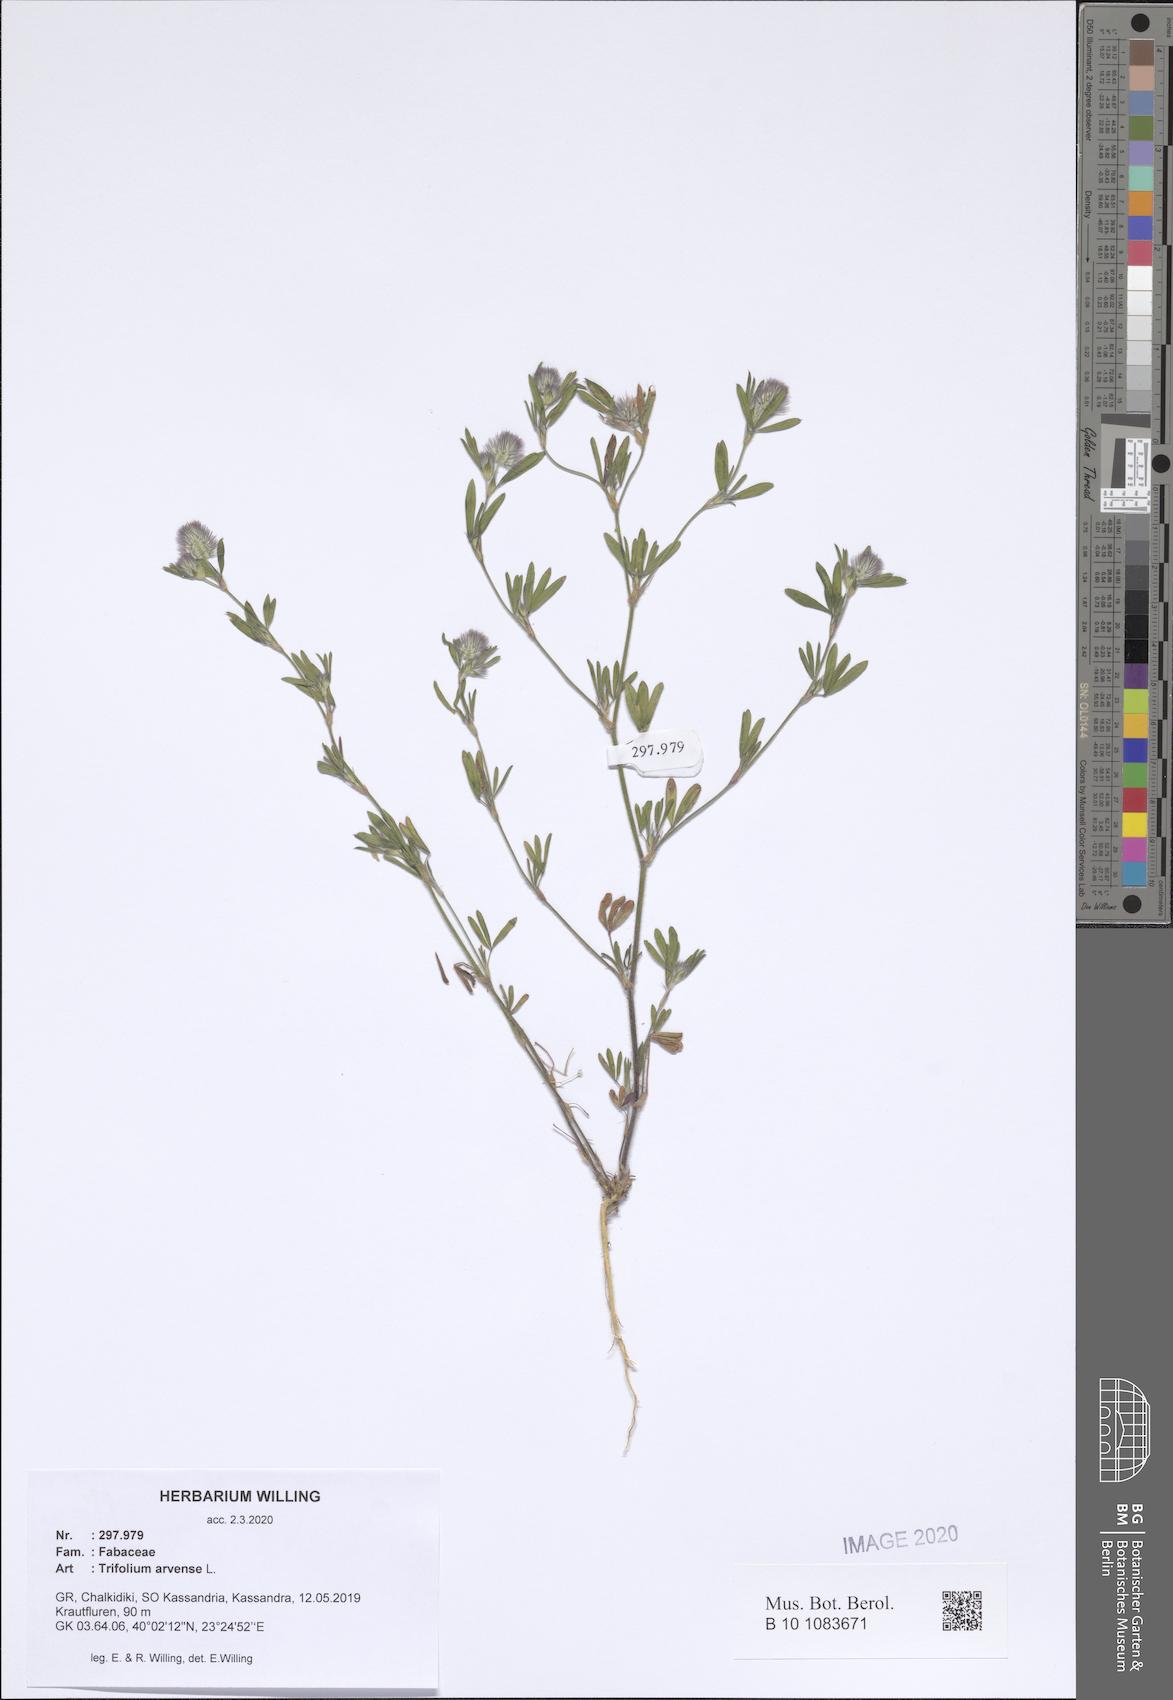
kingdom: Plantae
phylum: Tracheophyta
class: Magnoliopsida
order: Fabales
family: Fabaceae
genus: Trifolium
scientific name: Trifolium arvense
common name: Hare's-foot clover
